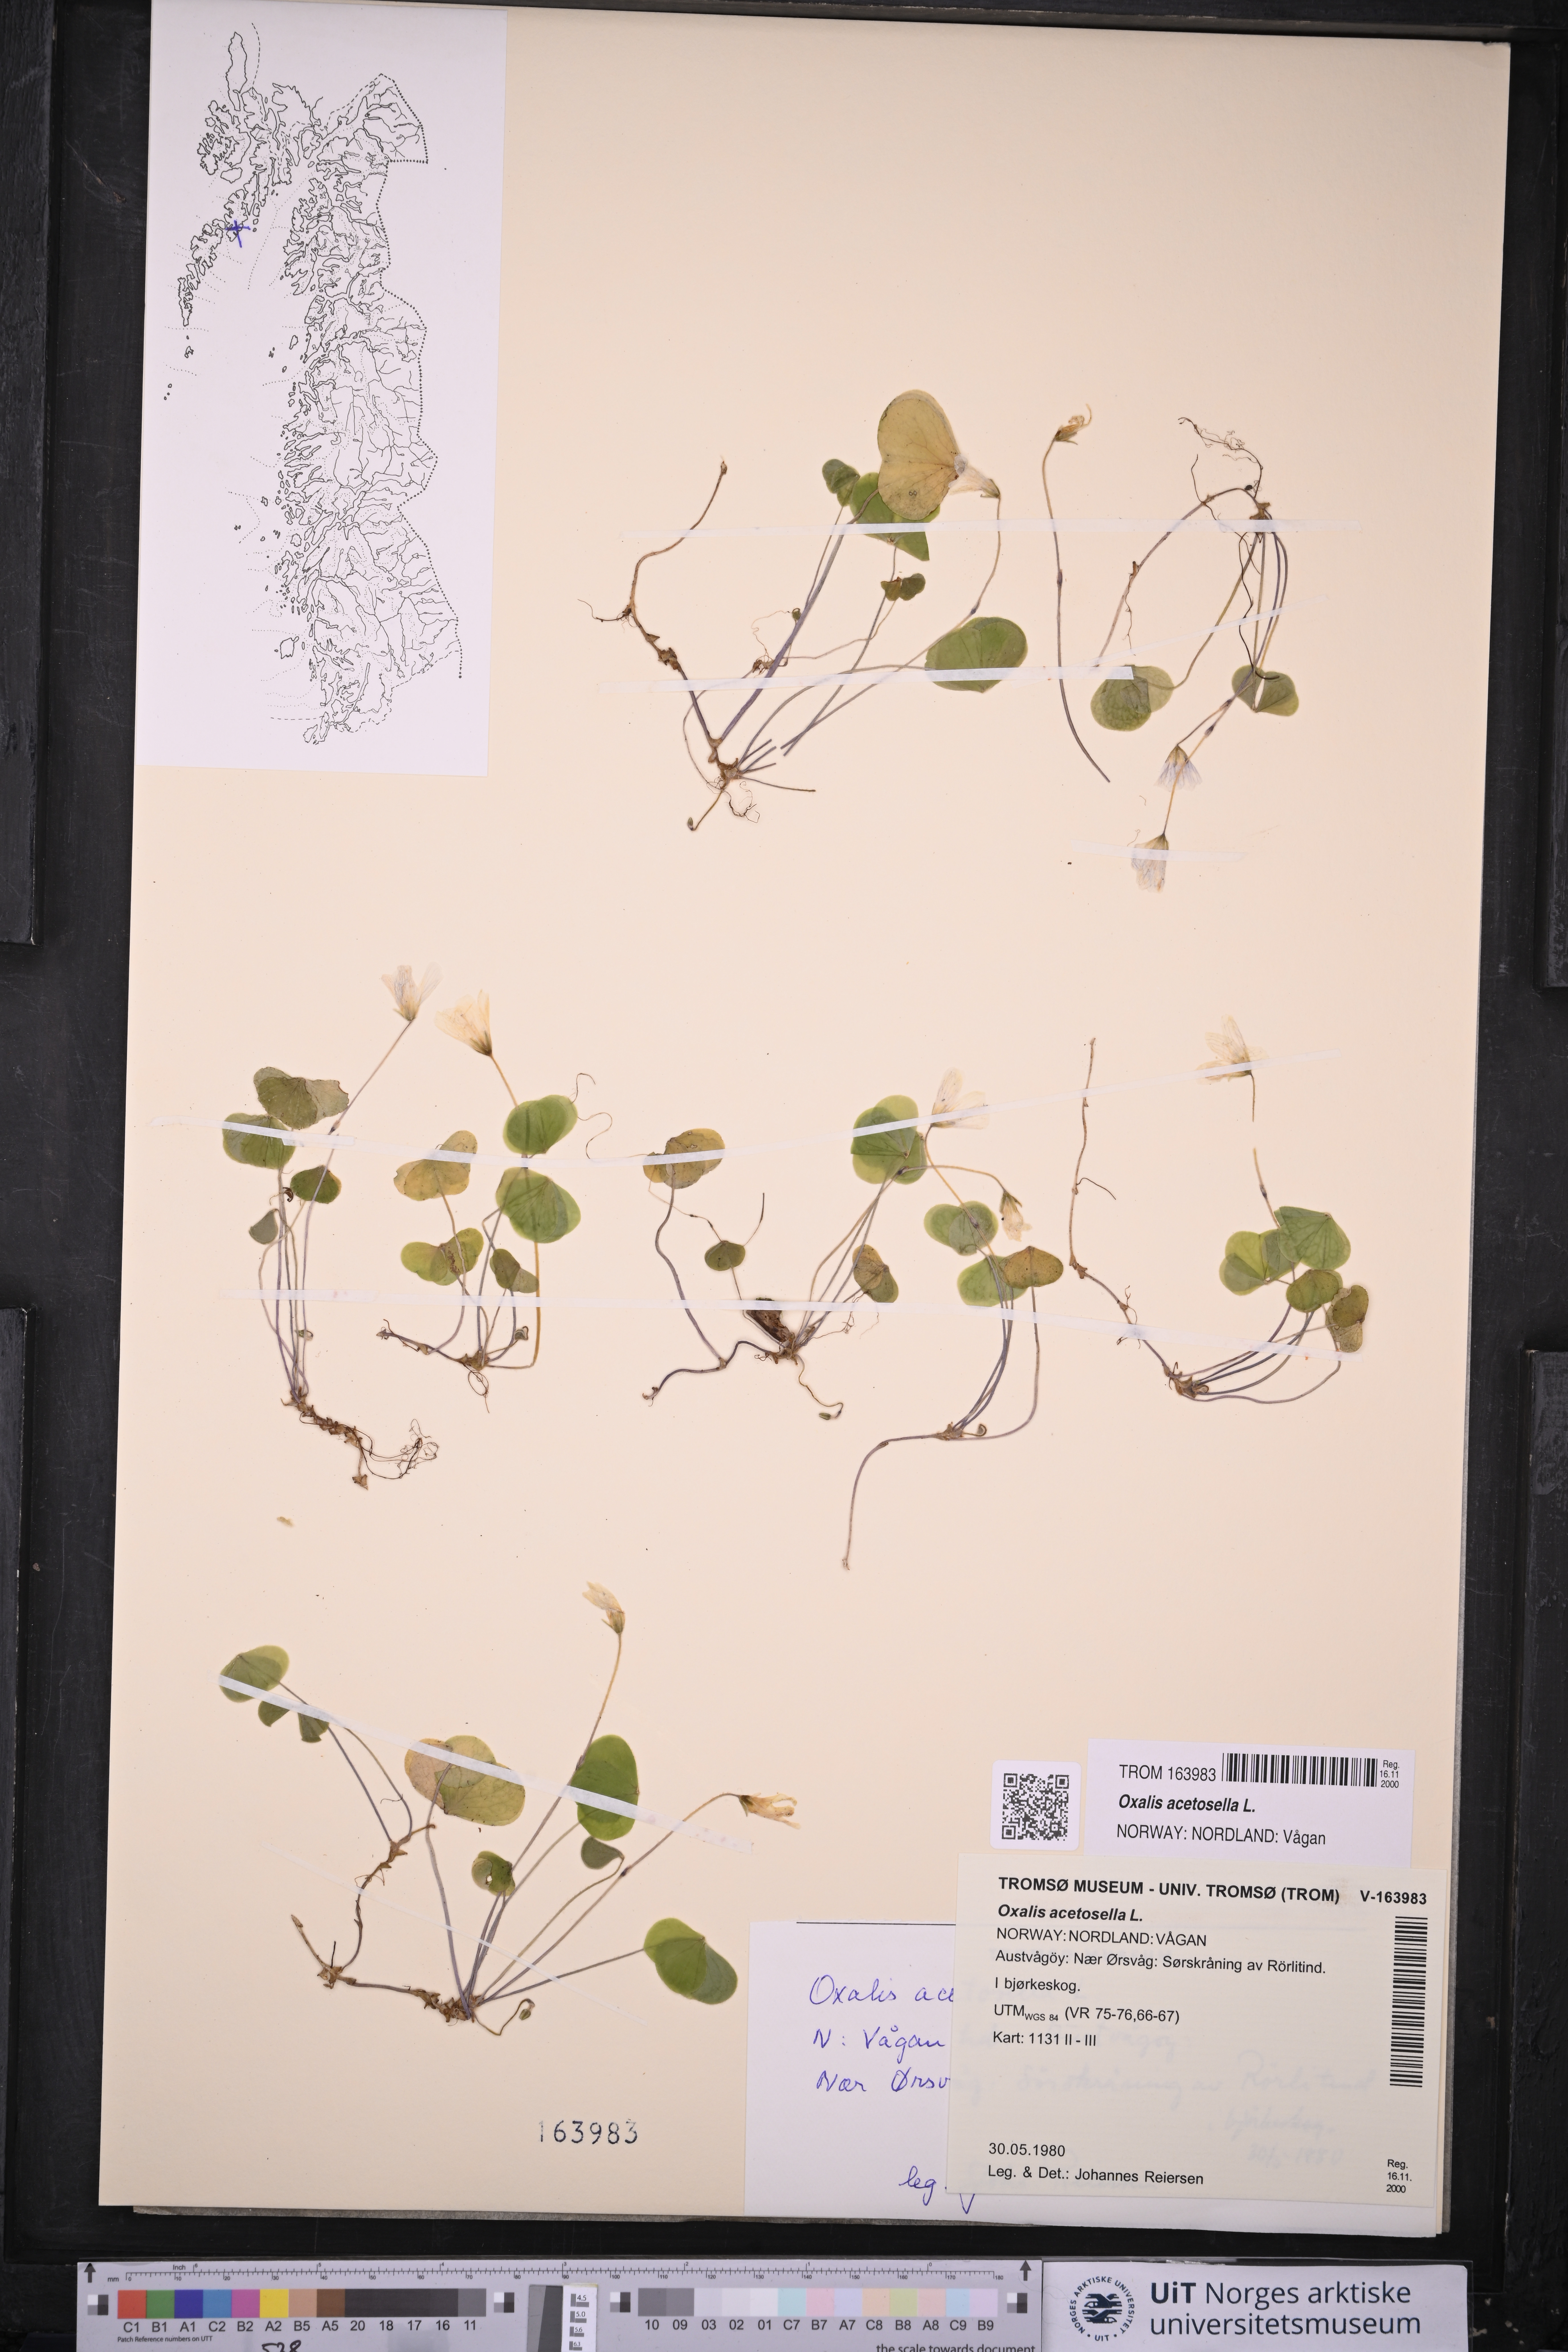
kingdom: Plantae
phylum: Tracheophyta
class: Magnoliopsida
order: Oxalidales
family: Oxalidaceae
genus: Oxalis
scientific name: Oxalis acetosella
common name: Wood-sorrel
